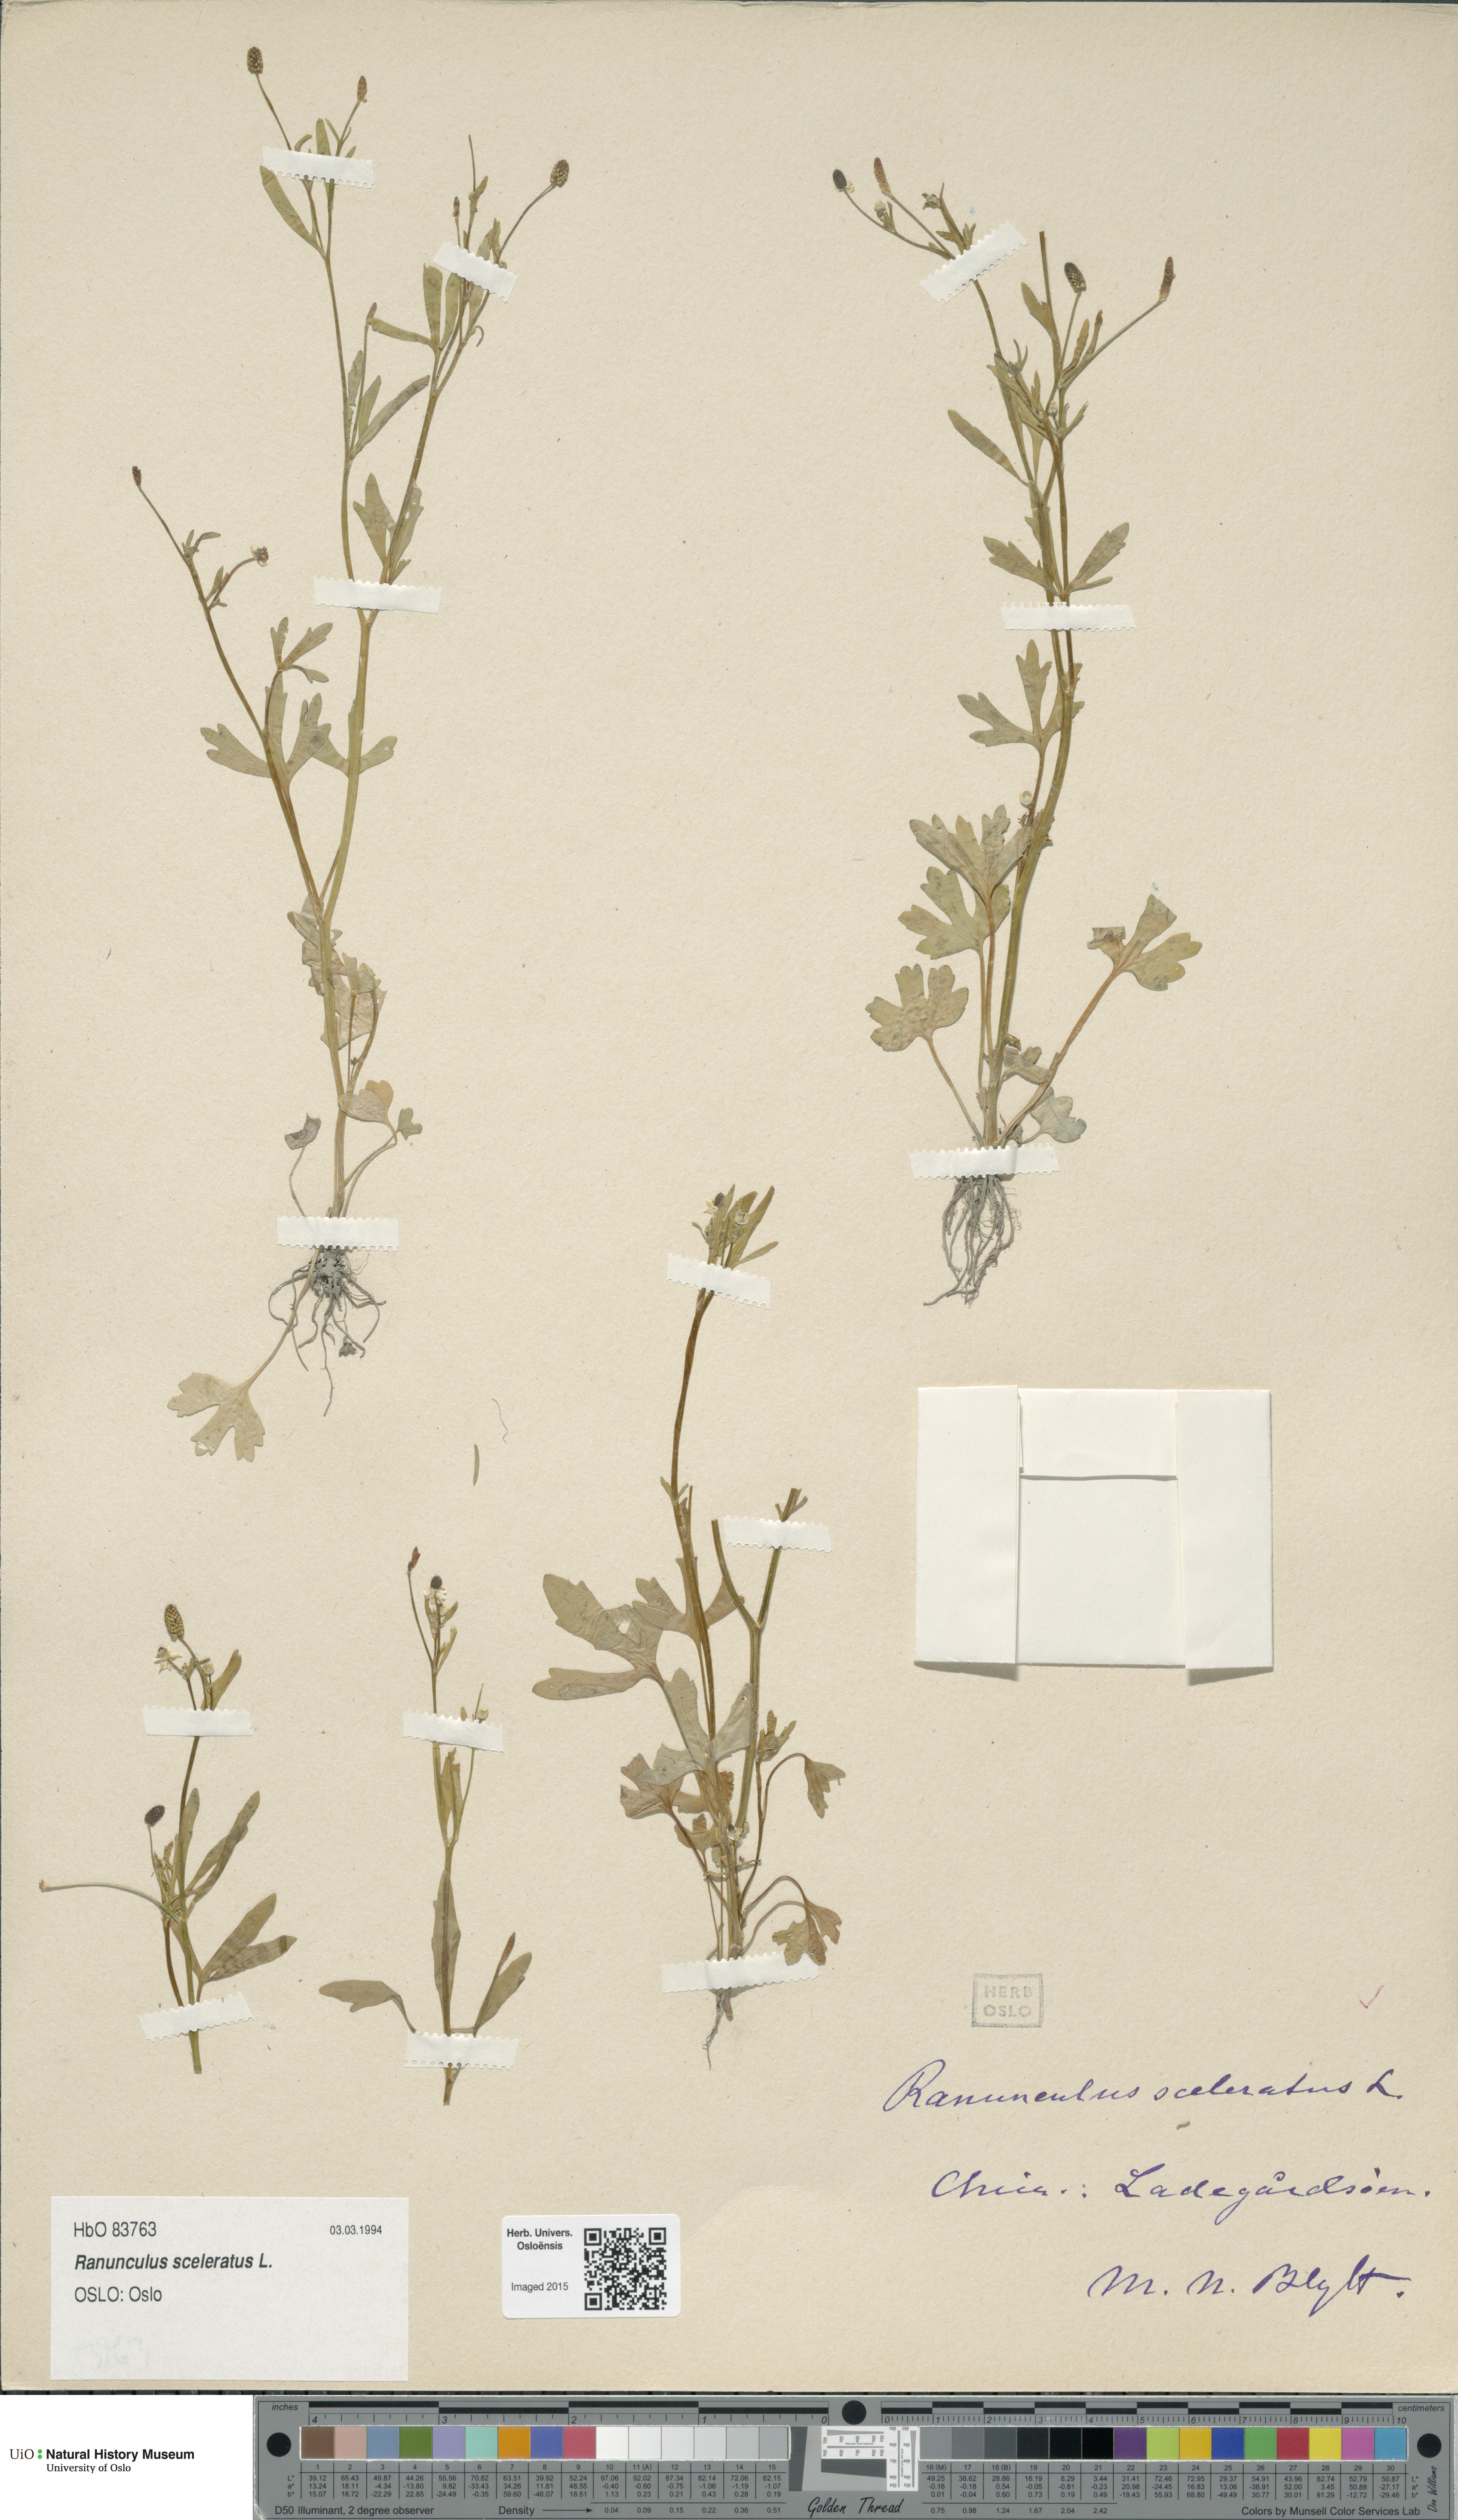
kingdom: Plantae
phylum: Tracheophyta
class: Magnoliopsida
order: Ranunculales
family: Ranunculaceae
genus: Ranunculus
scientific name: Ranunculus sceleratus
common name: Celery-leaved buttercup
